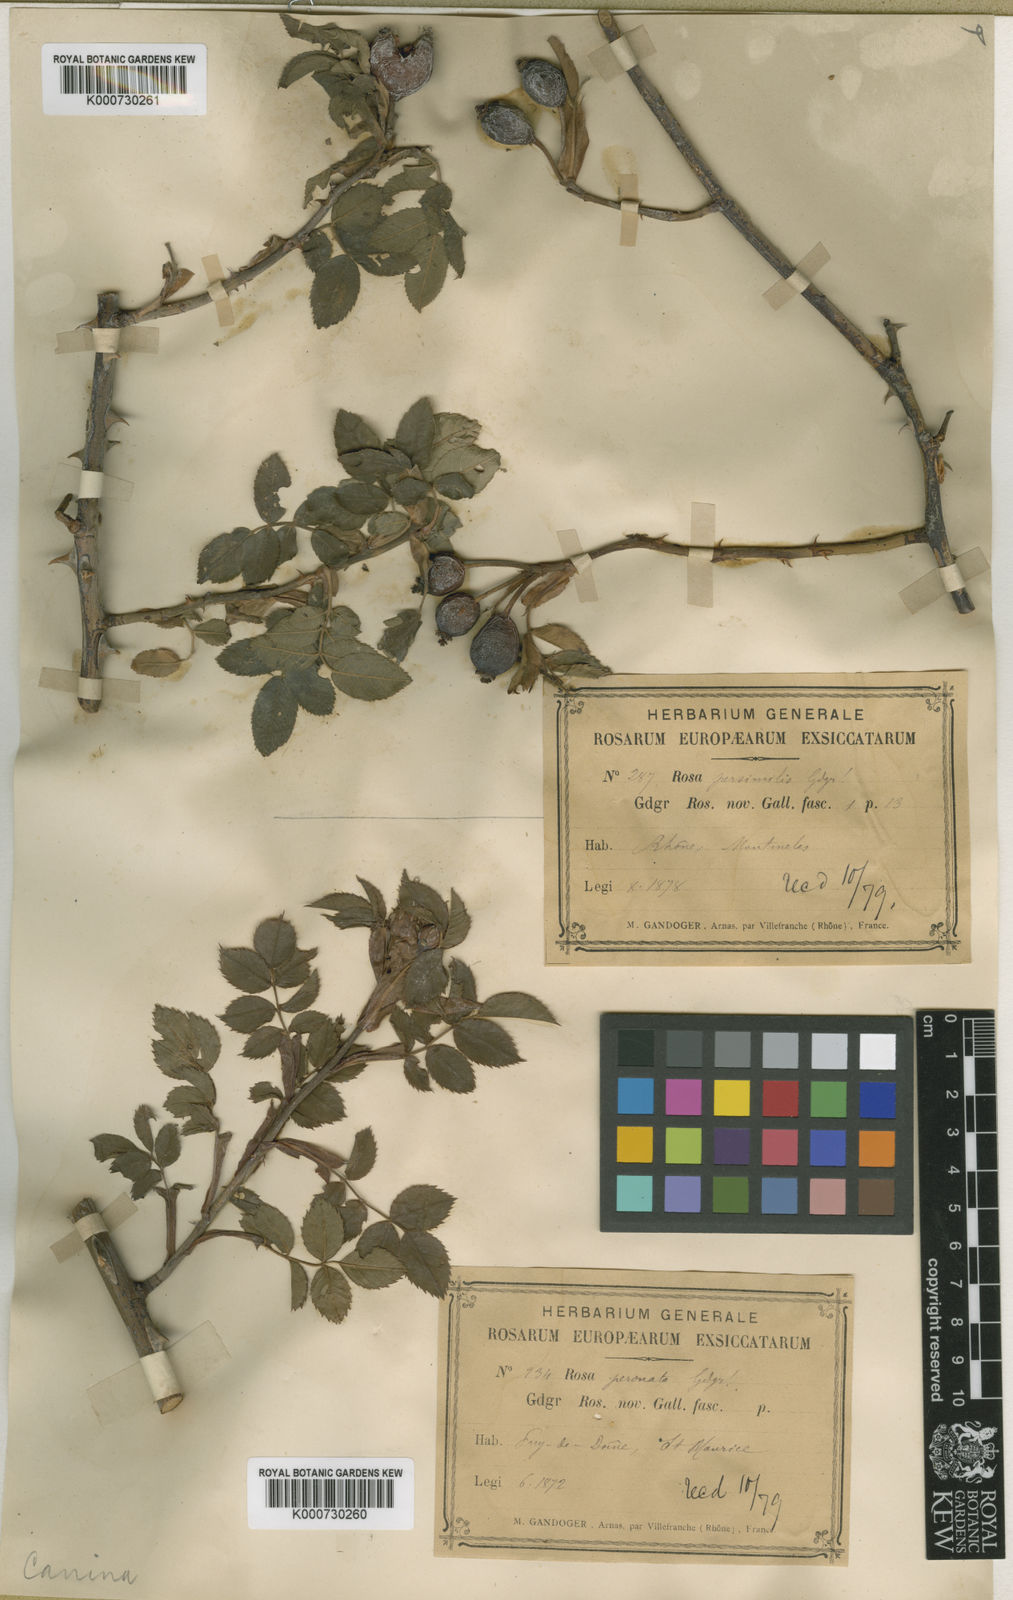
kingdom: Plantae
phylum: Tracheophyta
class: Magnoliopsida
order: Rosales
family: Rosaceae
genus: Rosa
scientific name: Rosa canina
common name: Dog rose
